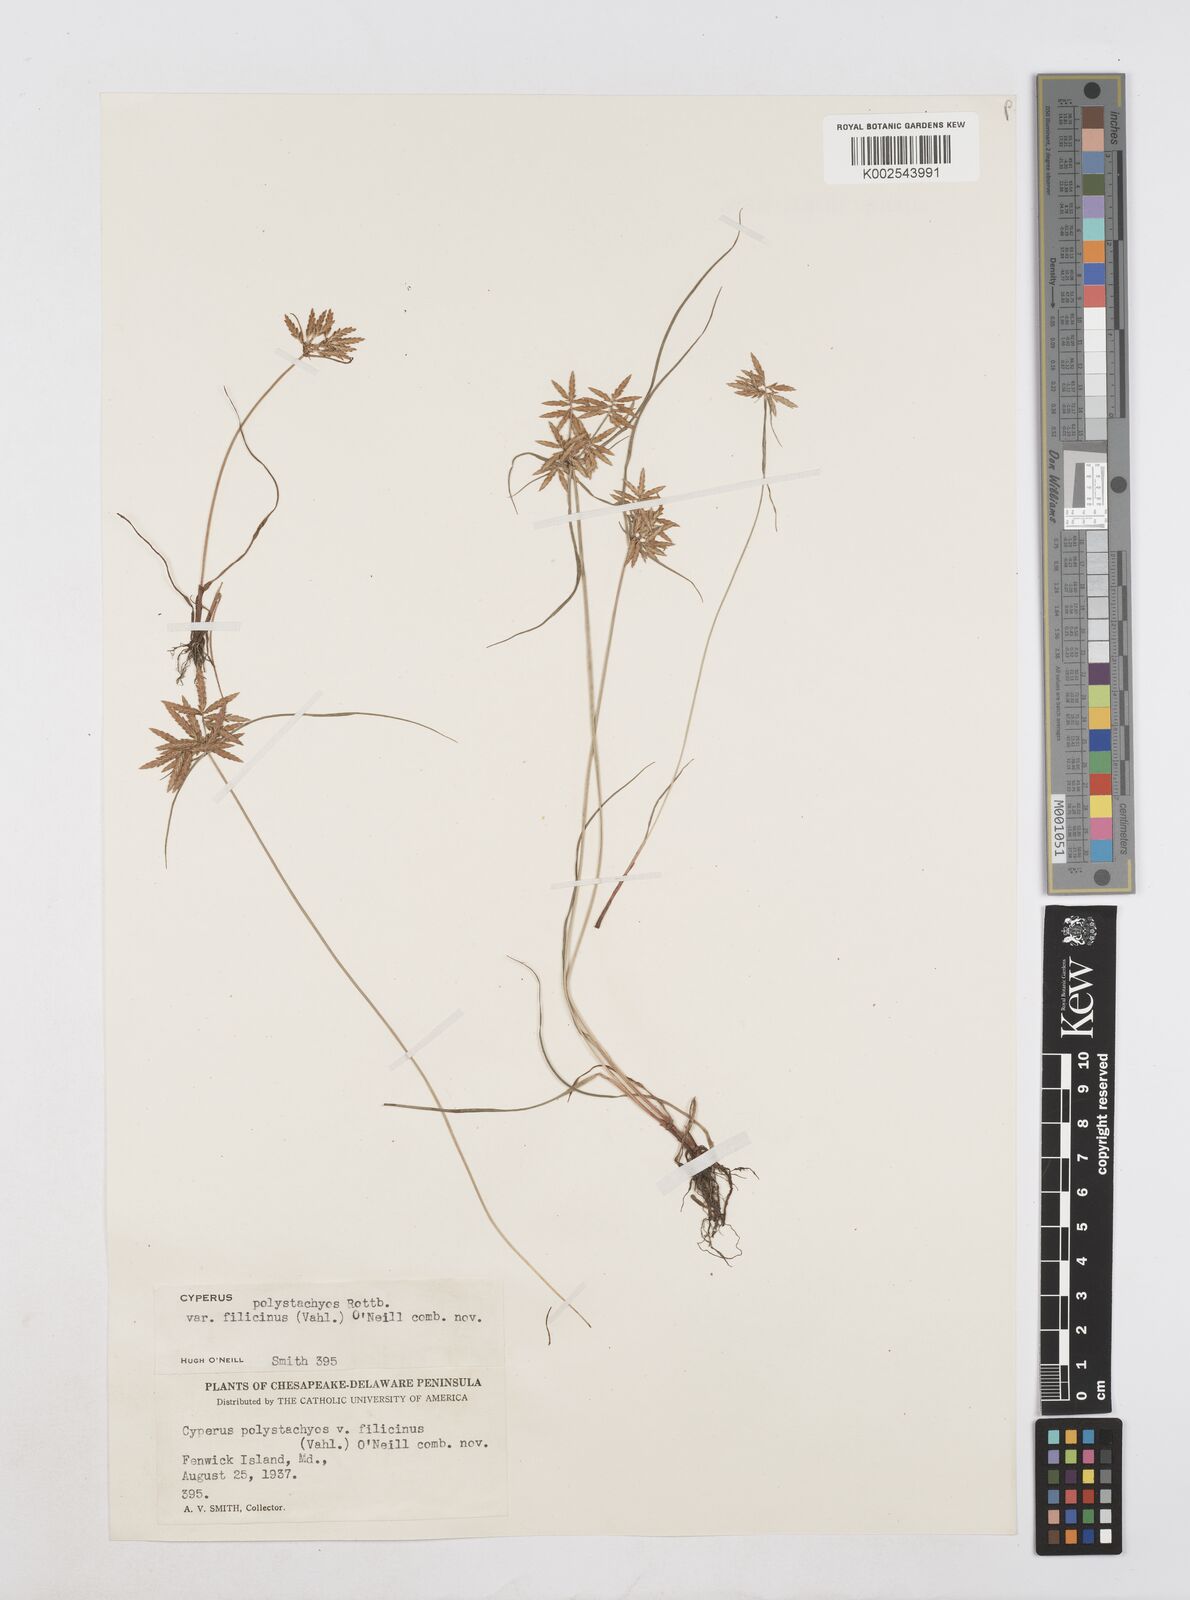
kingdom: Plantae
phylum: Tracheophyta
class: Liliopsida
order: Poales
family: Cyperaceae
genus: Cyperus
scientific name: Cyperus polystachyos
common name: Bunchy flat sedge
